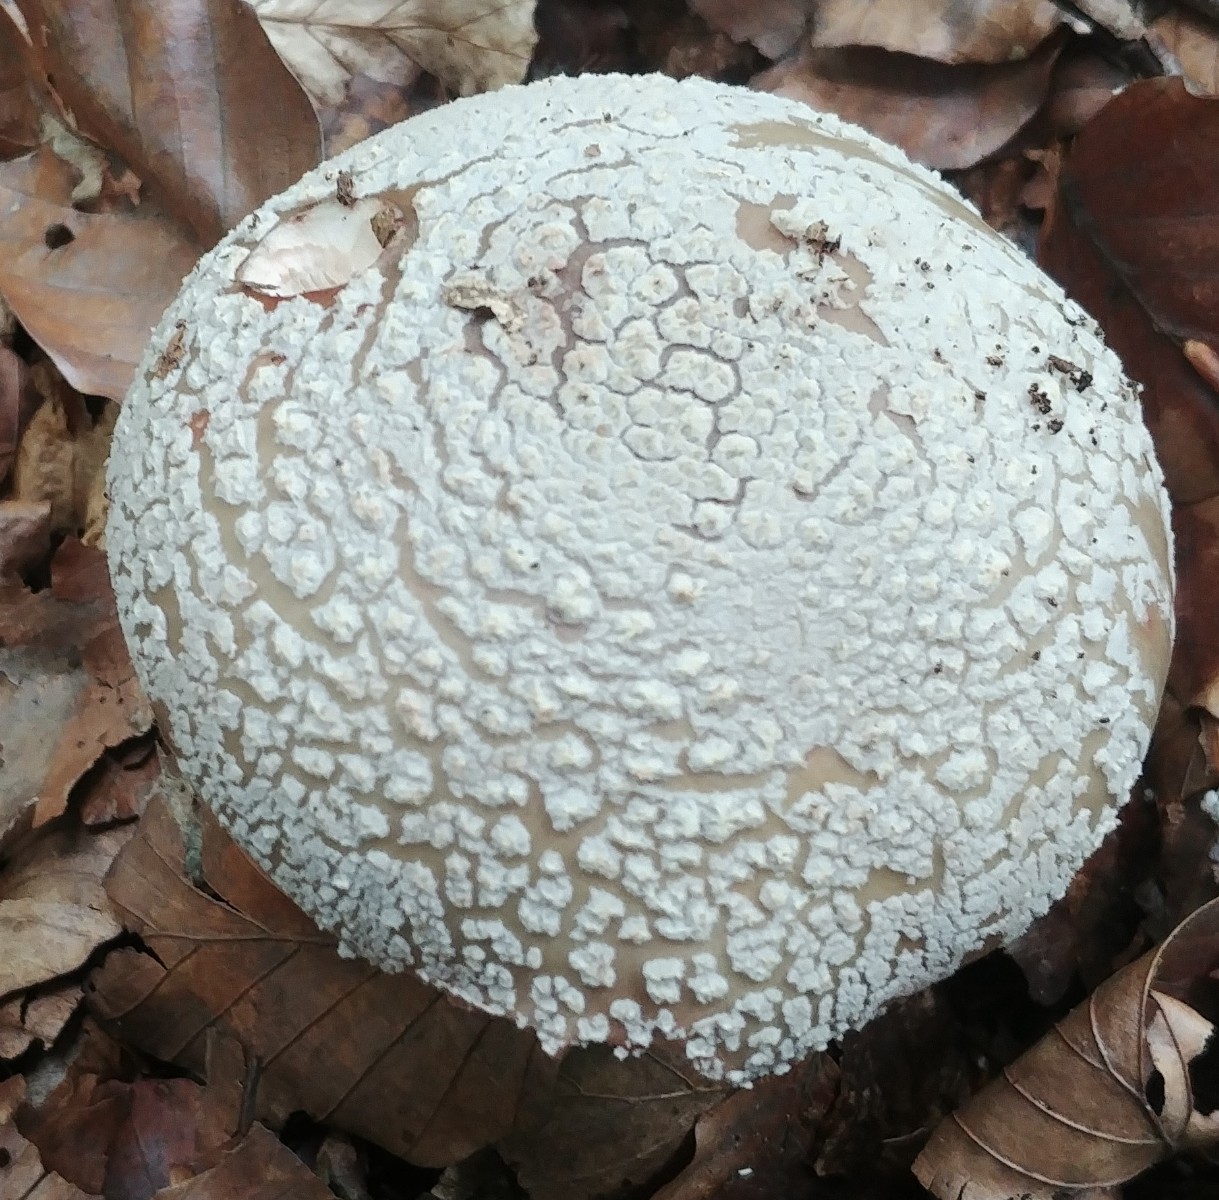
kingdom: Fungi
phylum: Basidiomycota
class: Agaricomycetes
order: Agaricales
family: Amanitaceae
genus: Amanita
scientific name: Amanita rubescens
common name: rødmende fluesvamp
